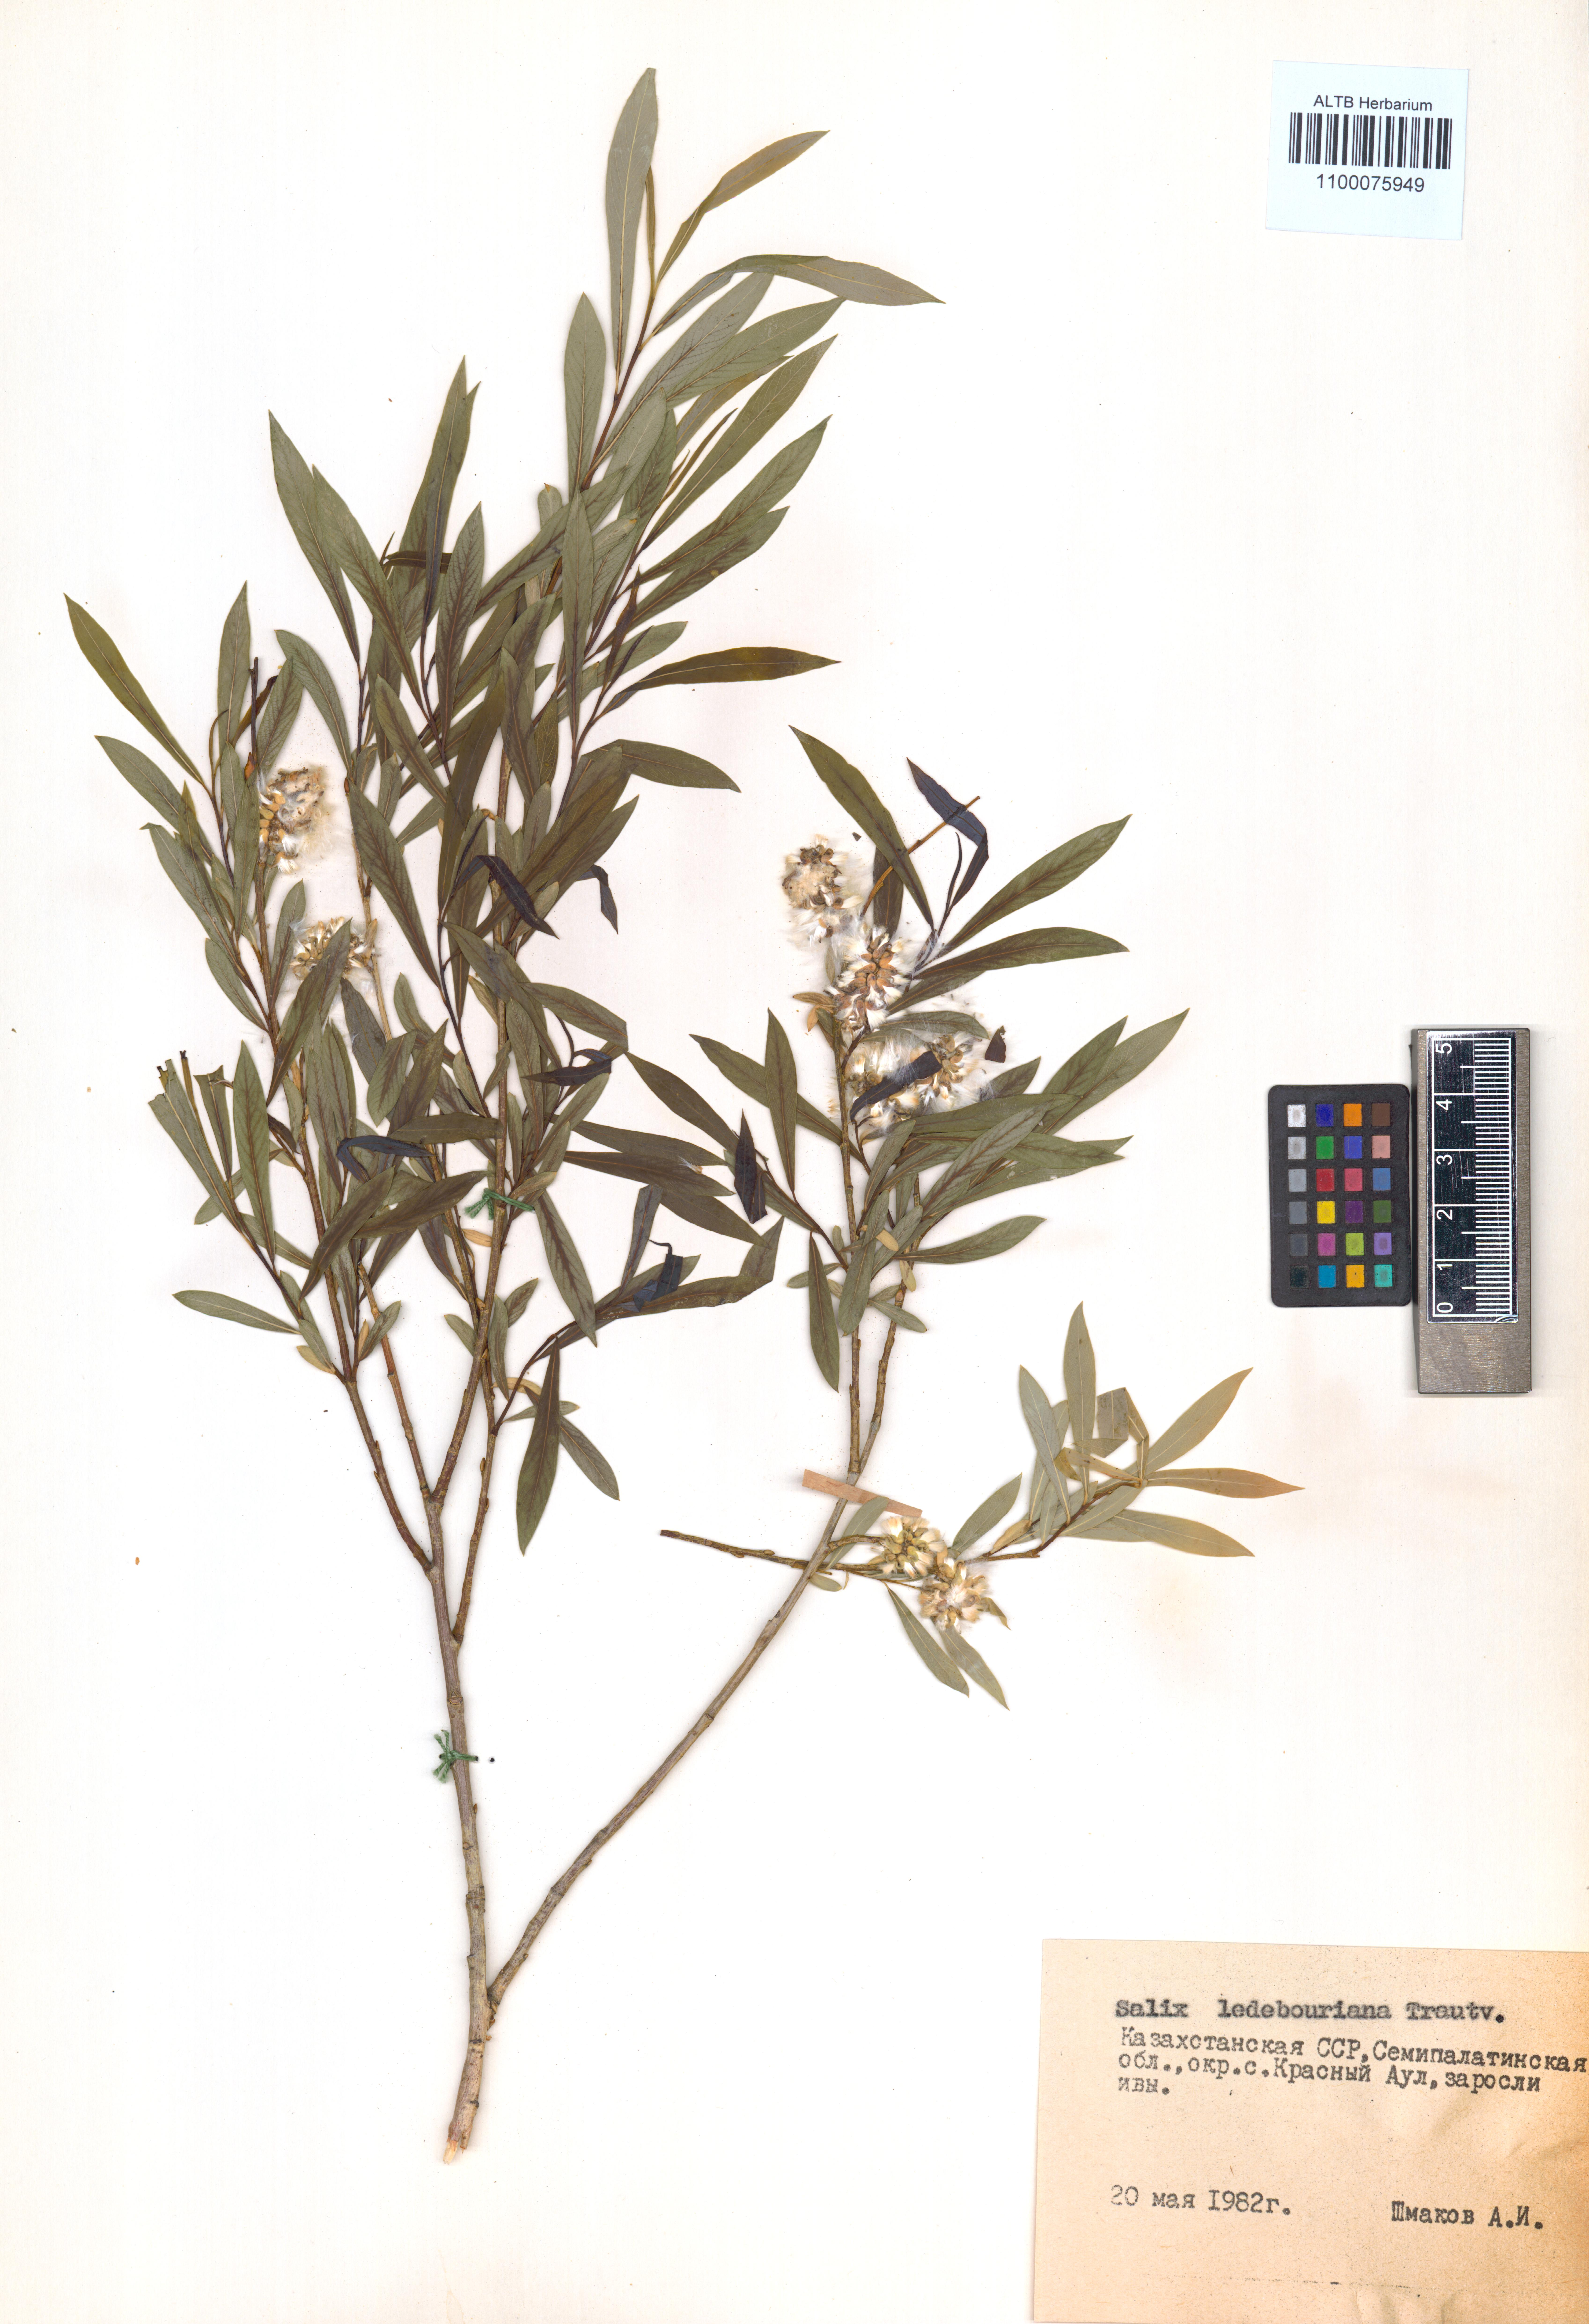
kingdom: Plantae
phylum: Tracheophyta
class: Magnoliopsida
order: Malpighiales
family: Salicaceae
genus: Salix
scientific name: Salix ledebouriana
